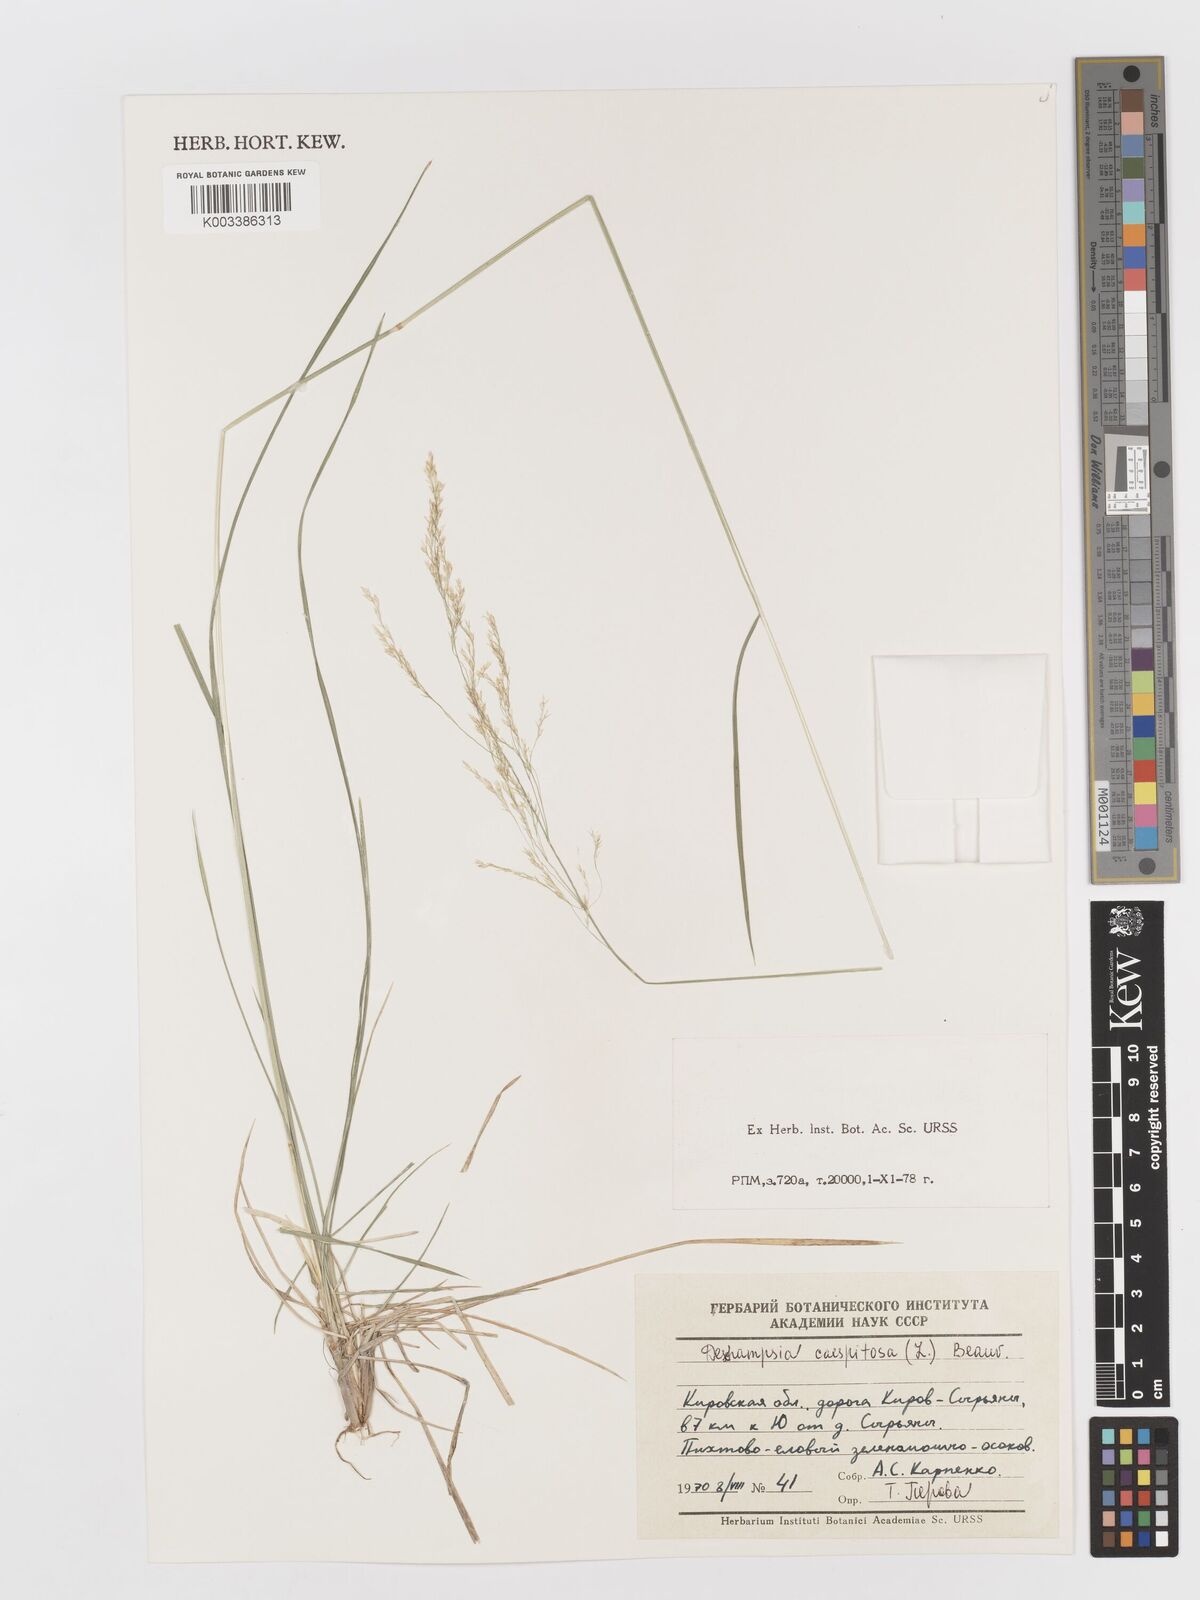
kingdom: Plantae
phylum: Tracheophyta
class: Liliopsida
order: Poales
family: Poaceae
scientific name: Poaceae
